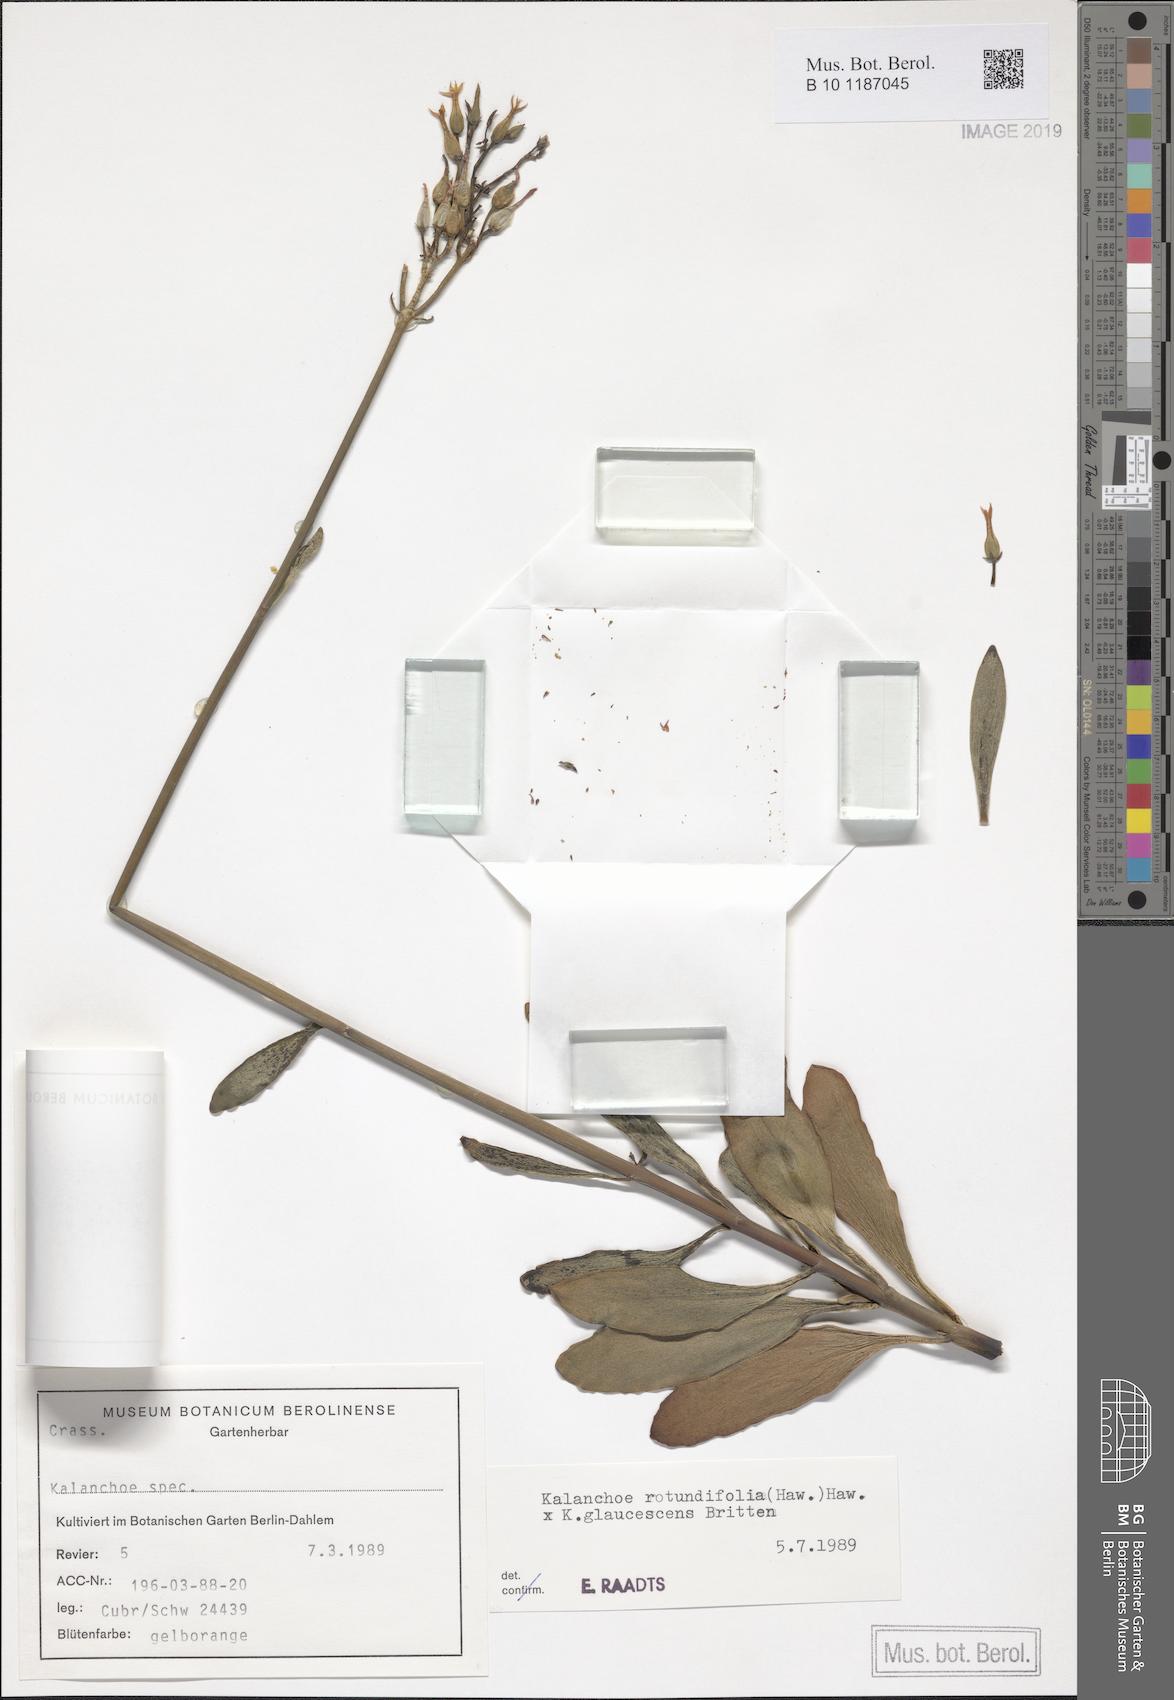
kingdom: Plantae
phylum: Tracheophyta
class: Magnoliopsida
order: Saxifragales
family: Crassulaceae
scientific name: Crassulaceae
